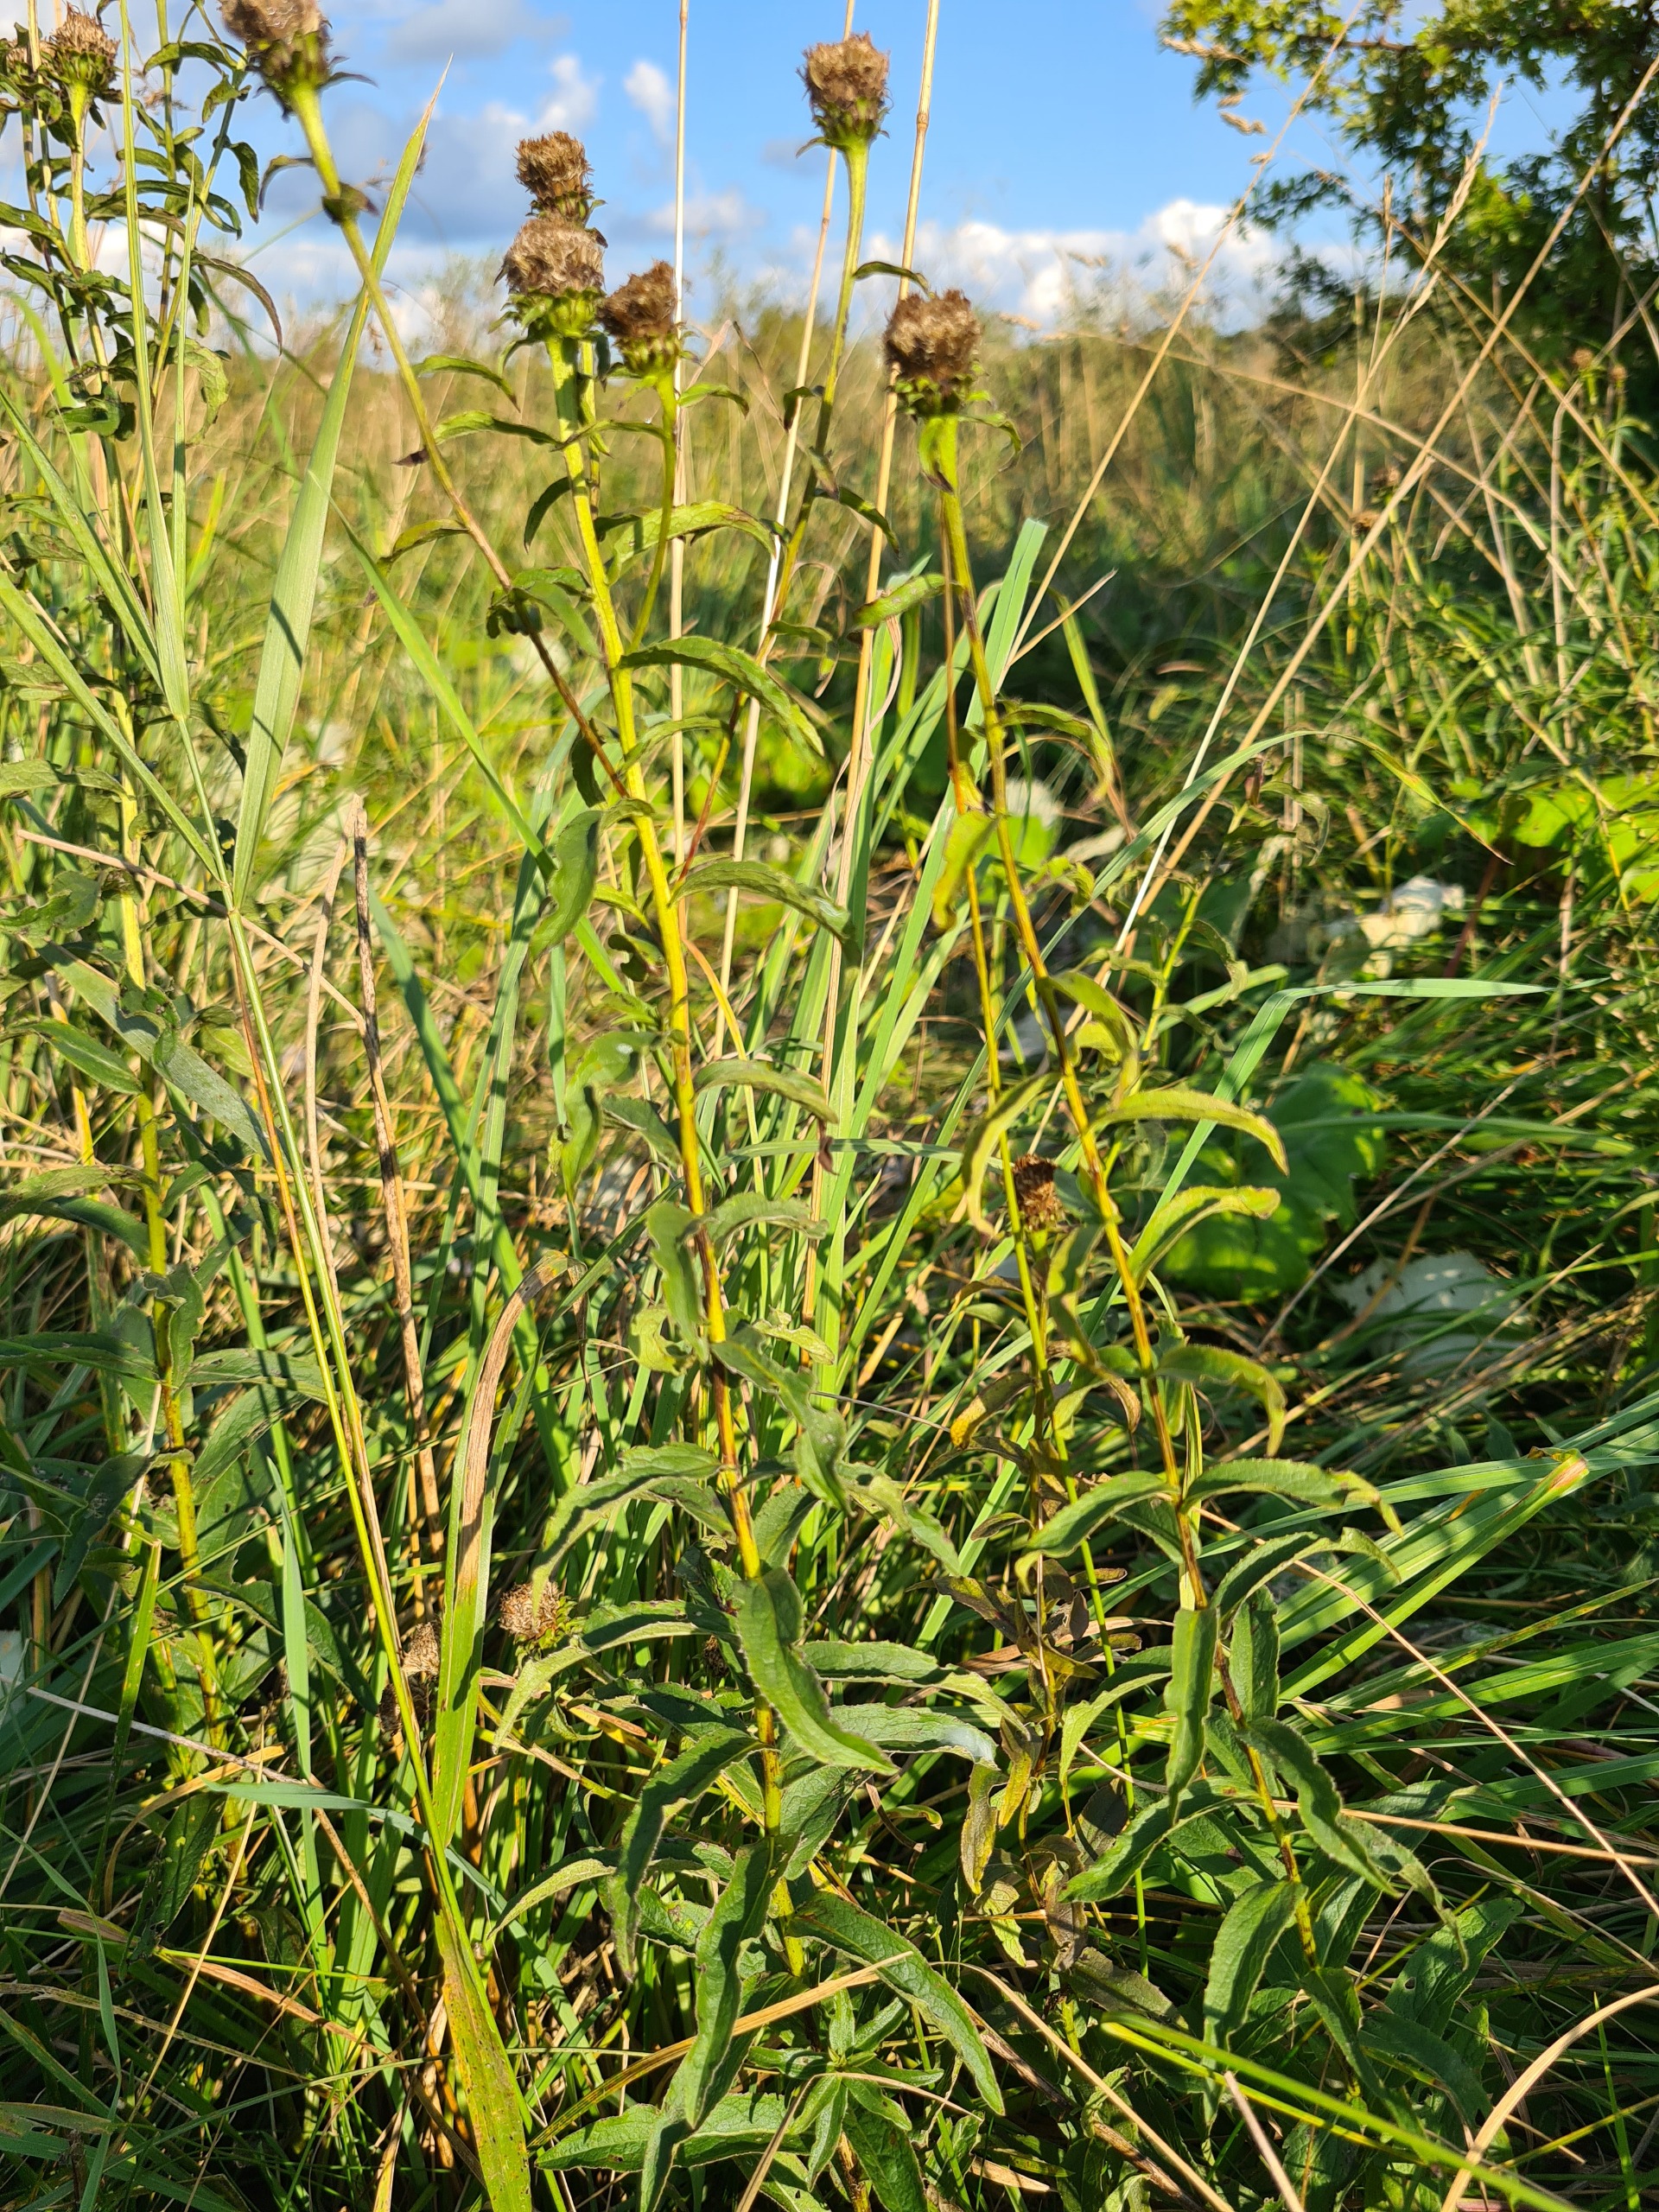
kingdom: Plantae
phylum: Tracheophyta
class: Magnoliopsida
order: Asterales
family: Asteraceae
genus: Pentanema
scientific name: Pentanema salicinum
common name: Pile-alant
